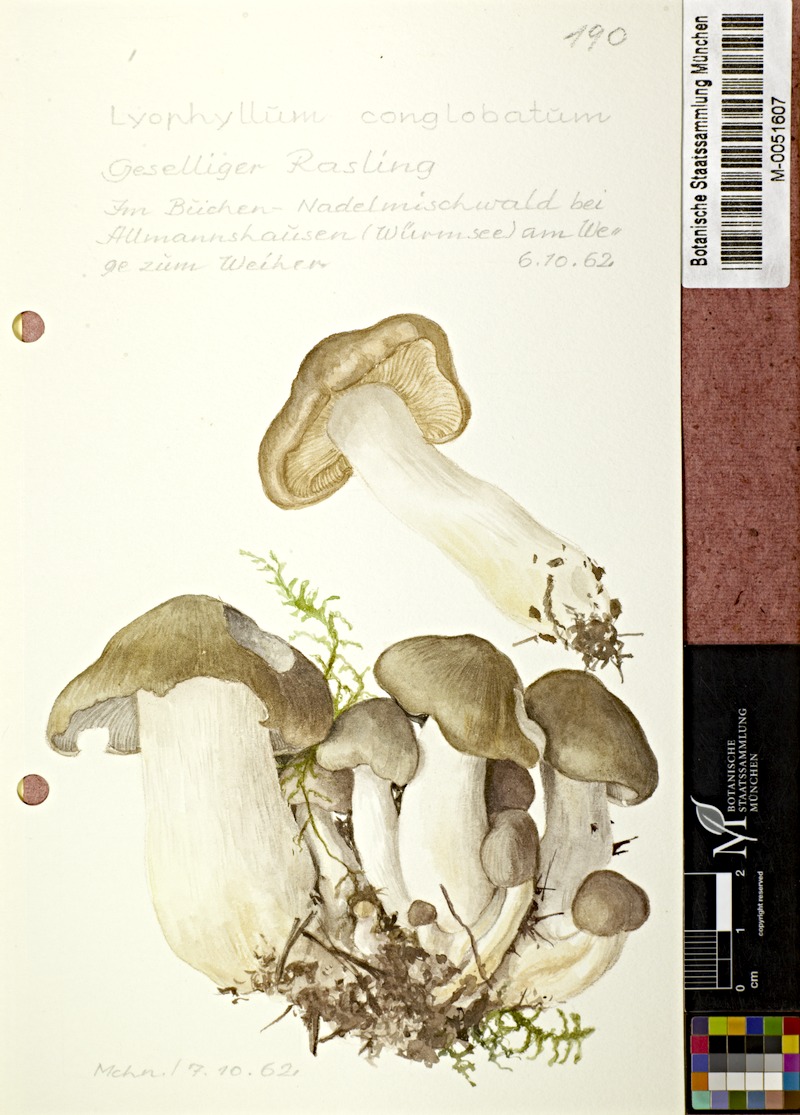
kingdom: Fungi
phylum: Basidiomycota
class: Agaricomycetes
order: Agaricales
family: Lyophyllaceae
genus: Lyophyllum
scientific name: Lyophyllum loricatum
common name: Gristly domecap
